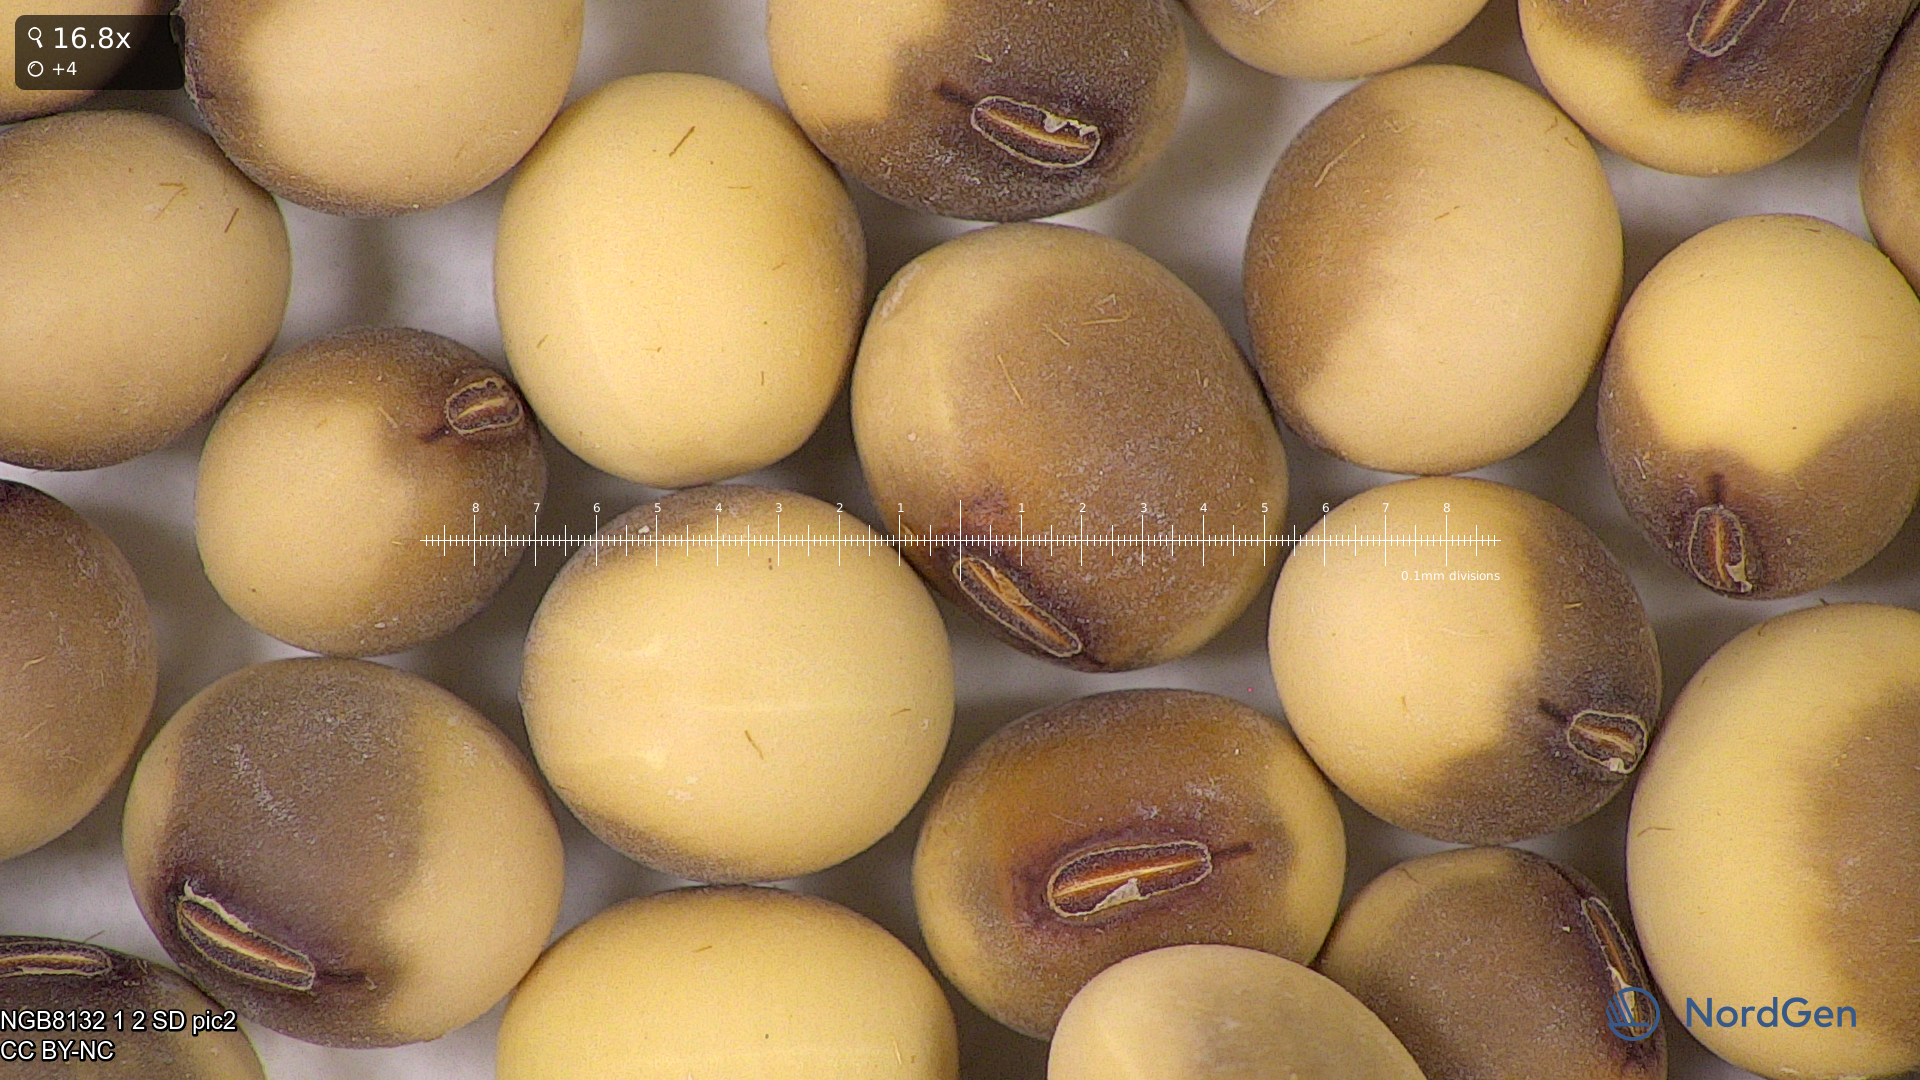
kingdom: Plantae
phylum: Tracheophyta
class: Magnoliopsida
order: Fabales
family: Fabaceae
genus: Glycine
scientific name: Glycine max
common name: Soya-bean
